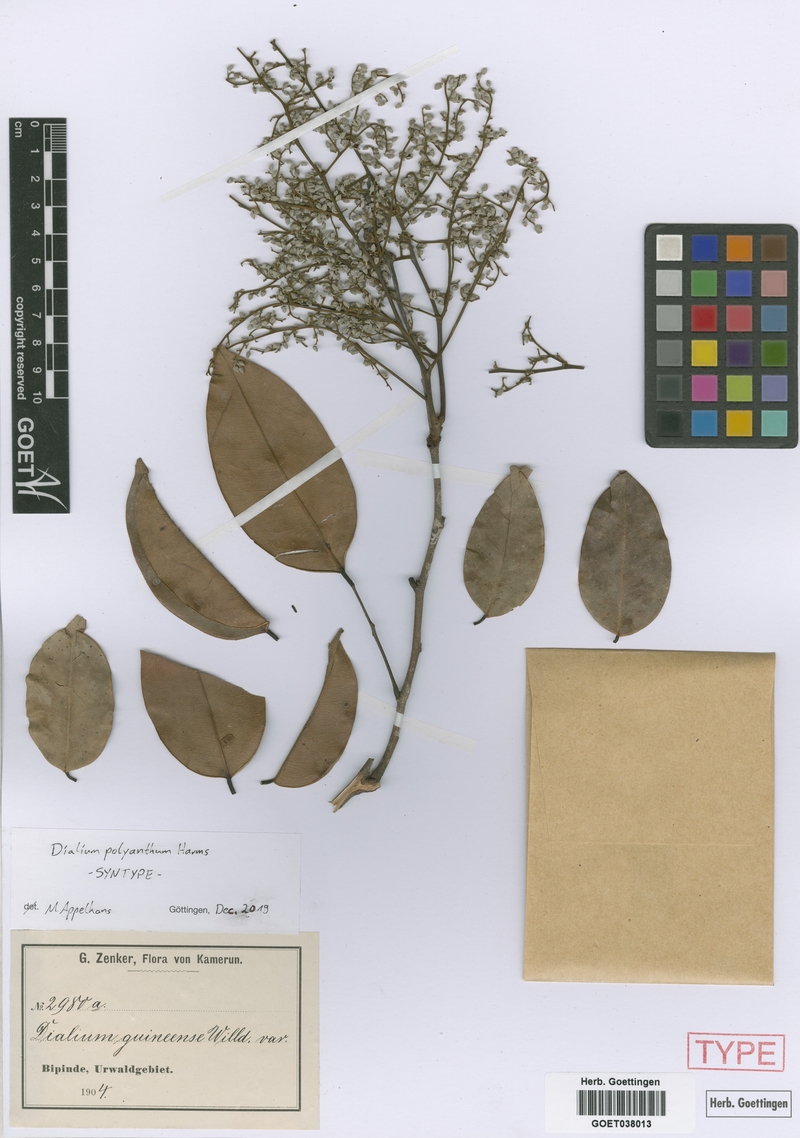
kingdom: Plantae
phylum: Tracheophyta
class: Magnoliopsida
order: Fabales
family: Fabaceae
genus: Dialium
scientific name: Dialium guineense
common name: Sierra leone-tamarind
